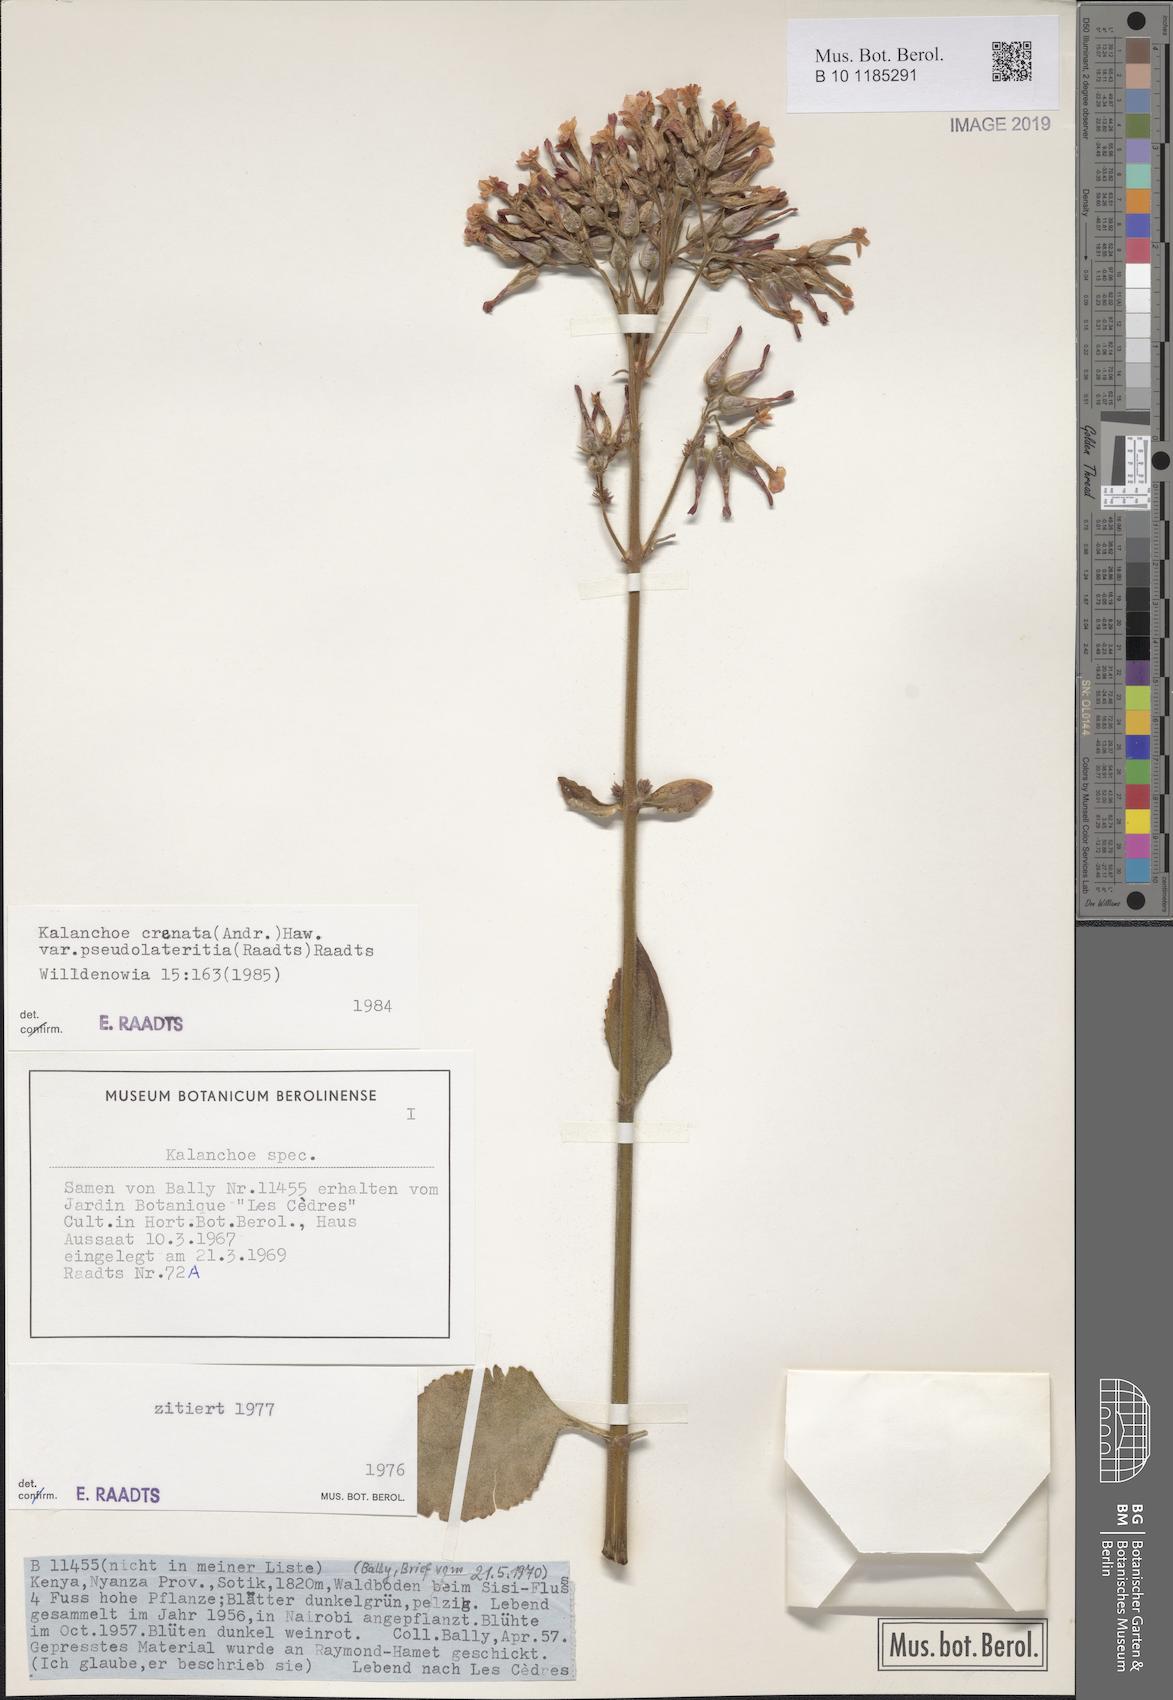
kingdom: Plantae
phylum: Tracheophyta
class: Magnoliopsida
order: Saxifragales
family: Crassulaceae
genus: Kalanchoe
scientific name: Kalanchoe lateritia
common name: Kalanchoe
